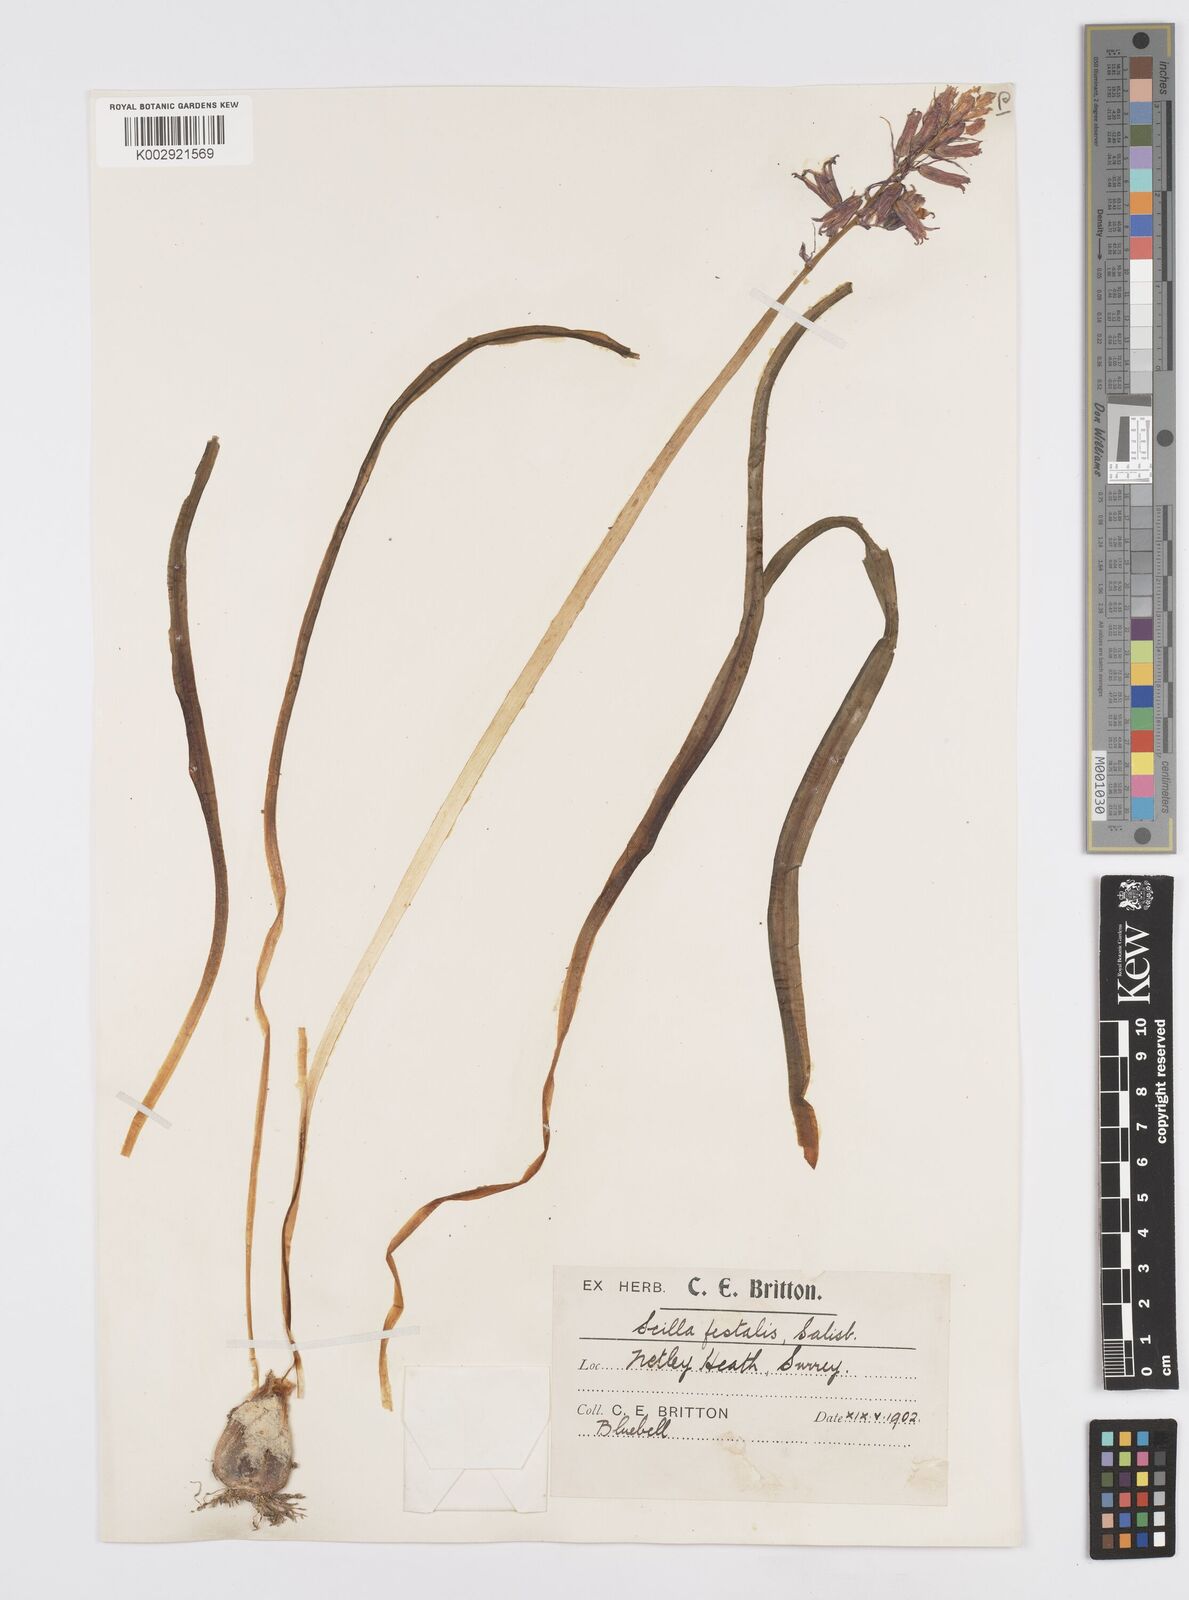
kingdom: Plantae
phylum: Tracheophyta
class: Liliopsida
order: Asparagales
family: Asparagaceae
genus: Hyacinthoides
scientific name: Hyacinthoides non-scripta
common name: Bluebell
